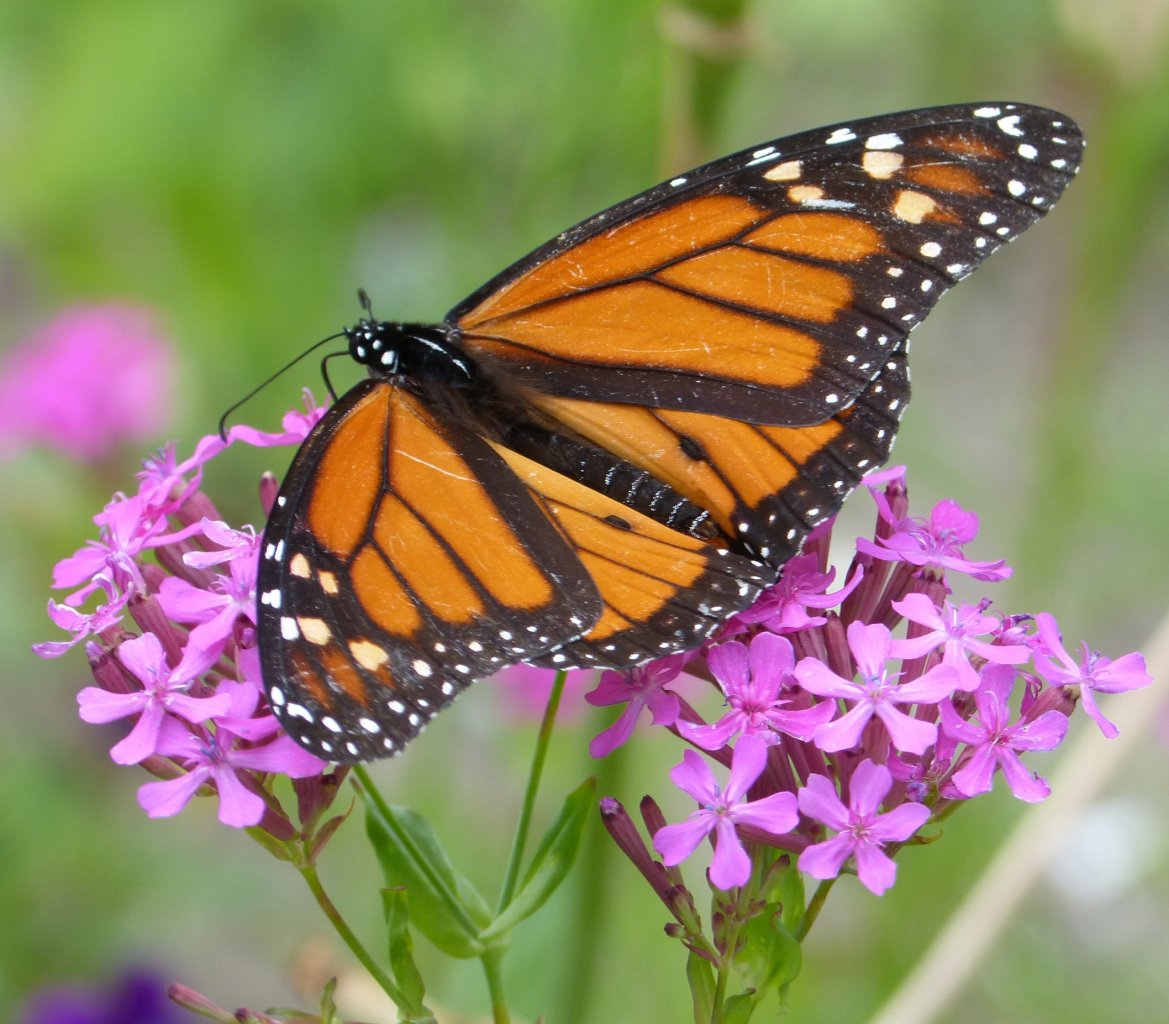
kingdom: Animalia
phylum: Arthropoda
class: Insecta
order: Lepidoptera
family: Nymphalidae
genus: Danaus
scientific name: Danaus plexippus
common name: Monarch
